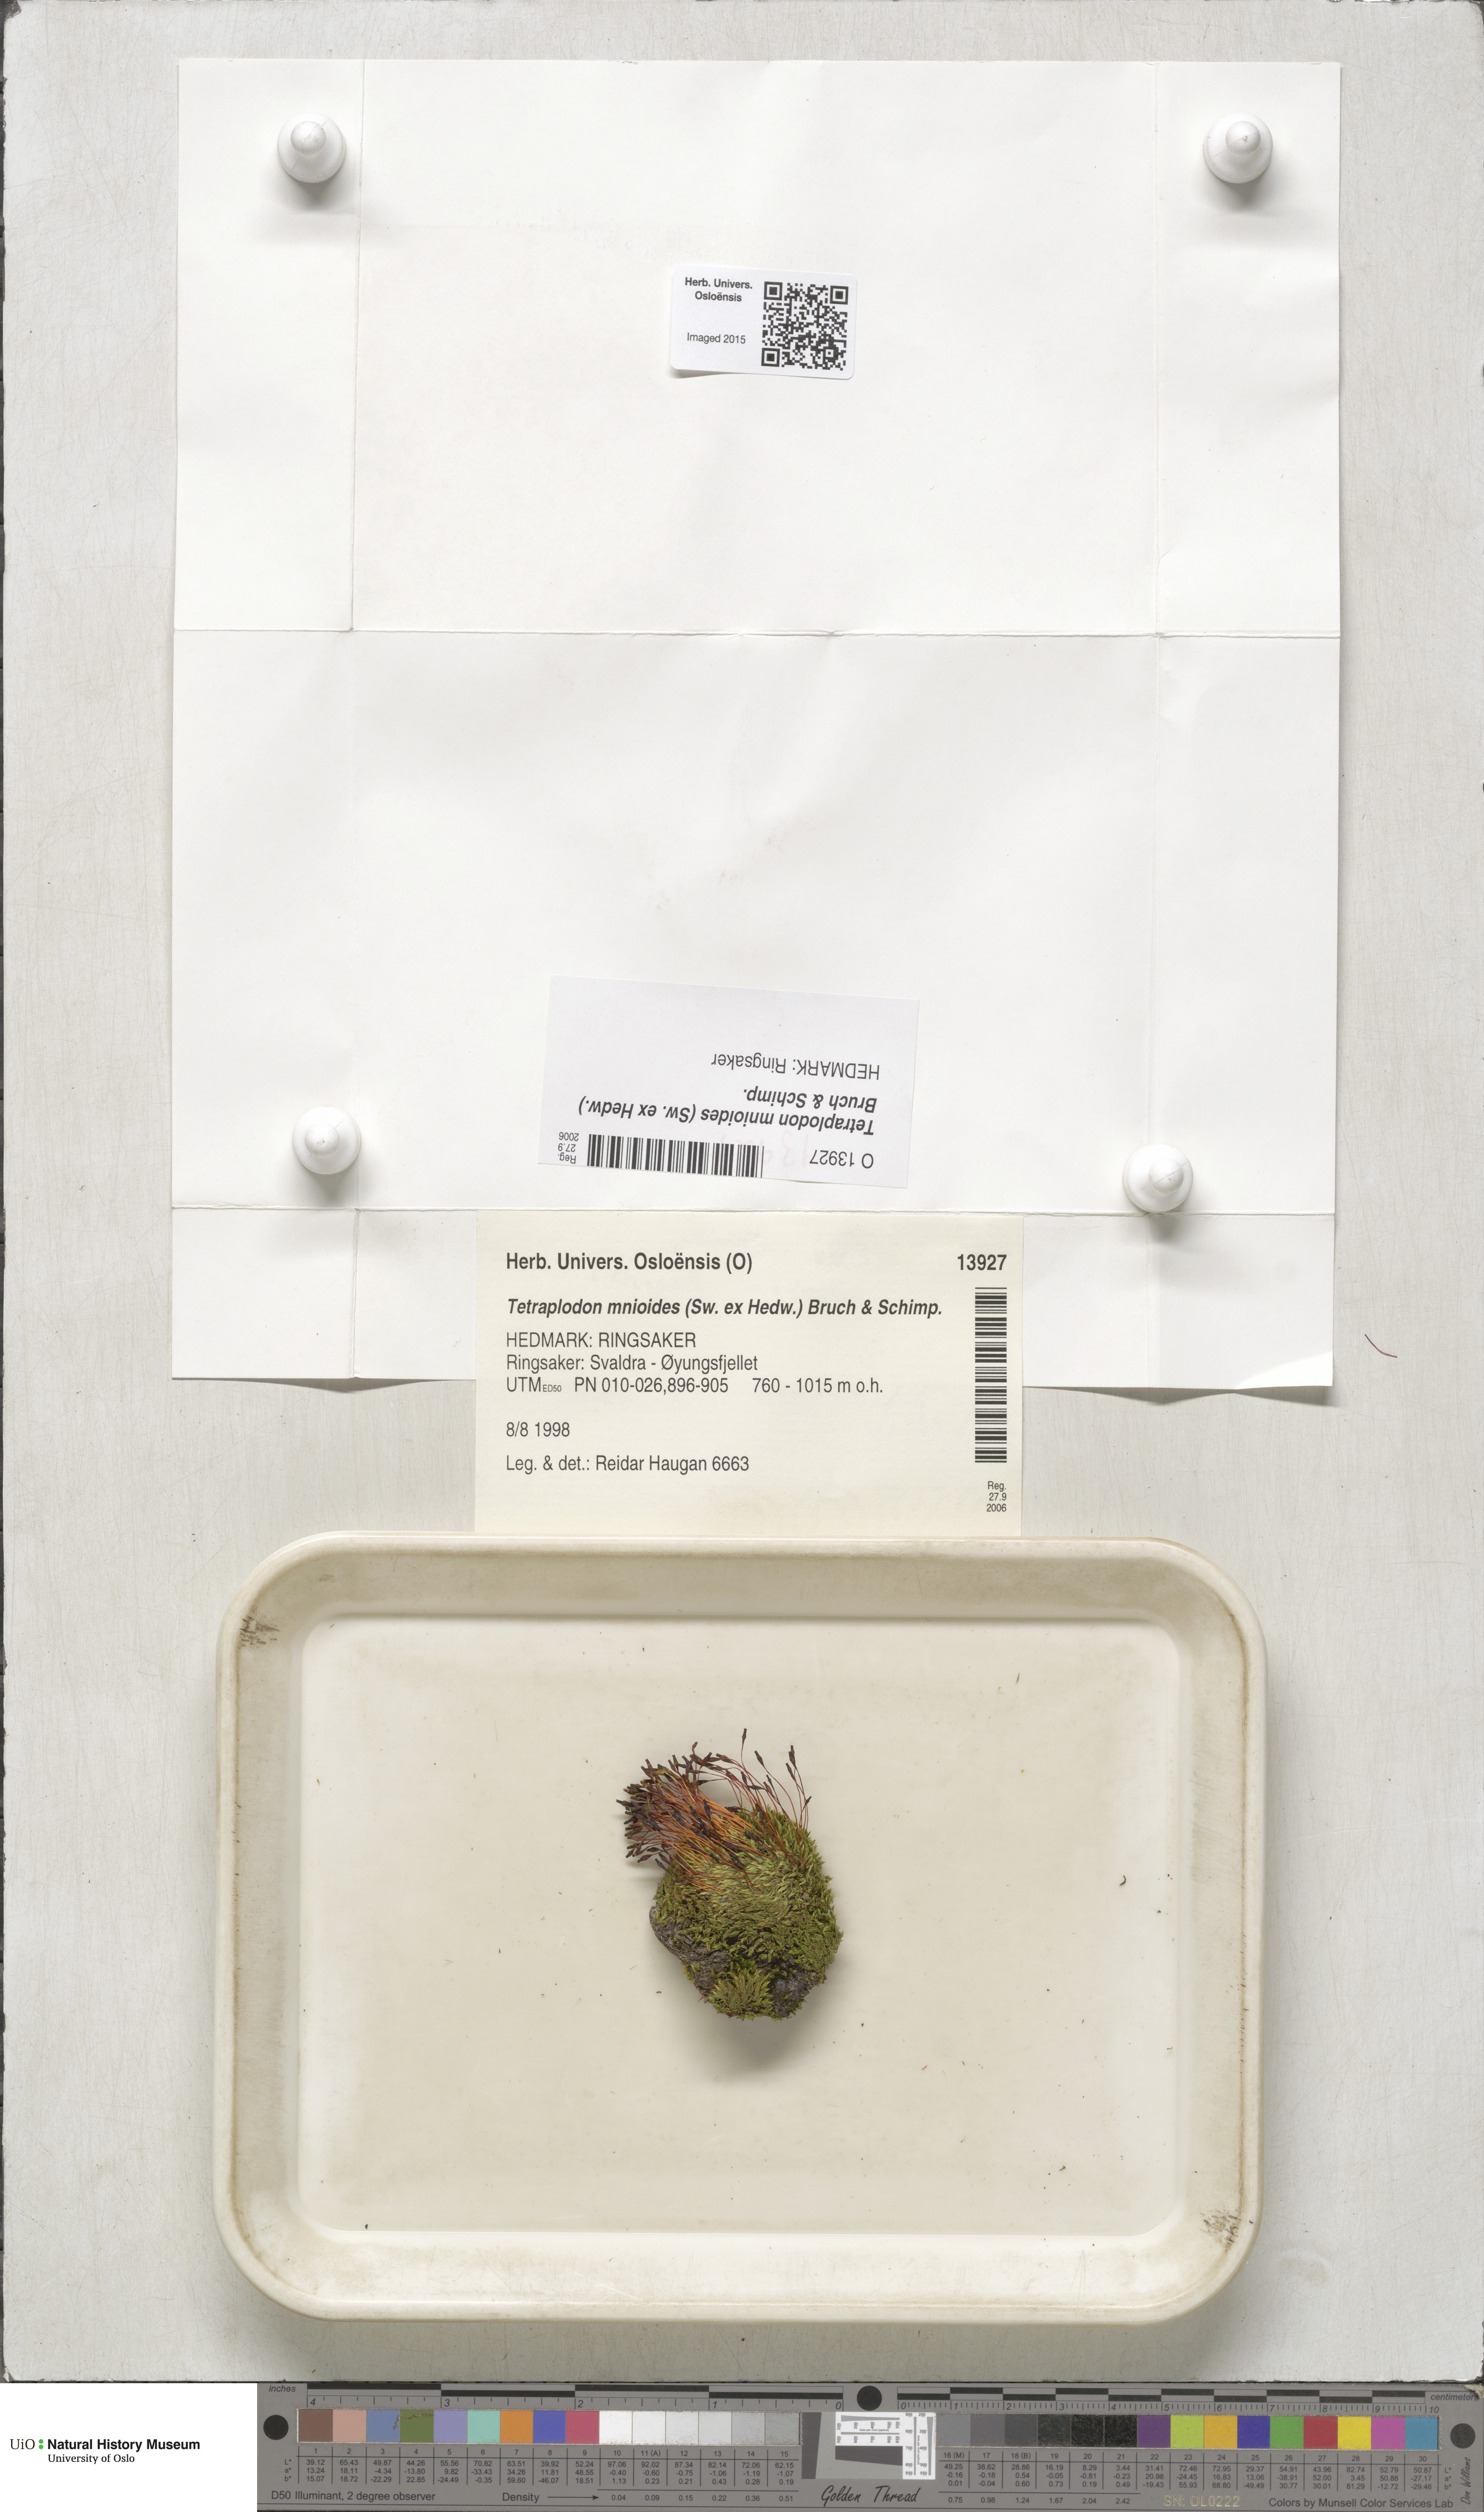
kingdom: Plantae
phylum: Bryophyta
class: Bryopsida
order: Splachnales
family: Splachnaceae
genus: Tetraplodon
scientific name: Tetraplodon mnioides
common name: Entire-leaved nitrogen moss
